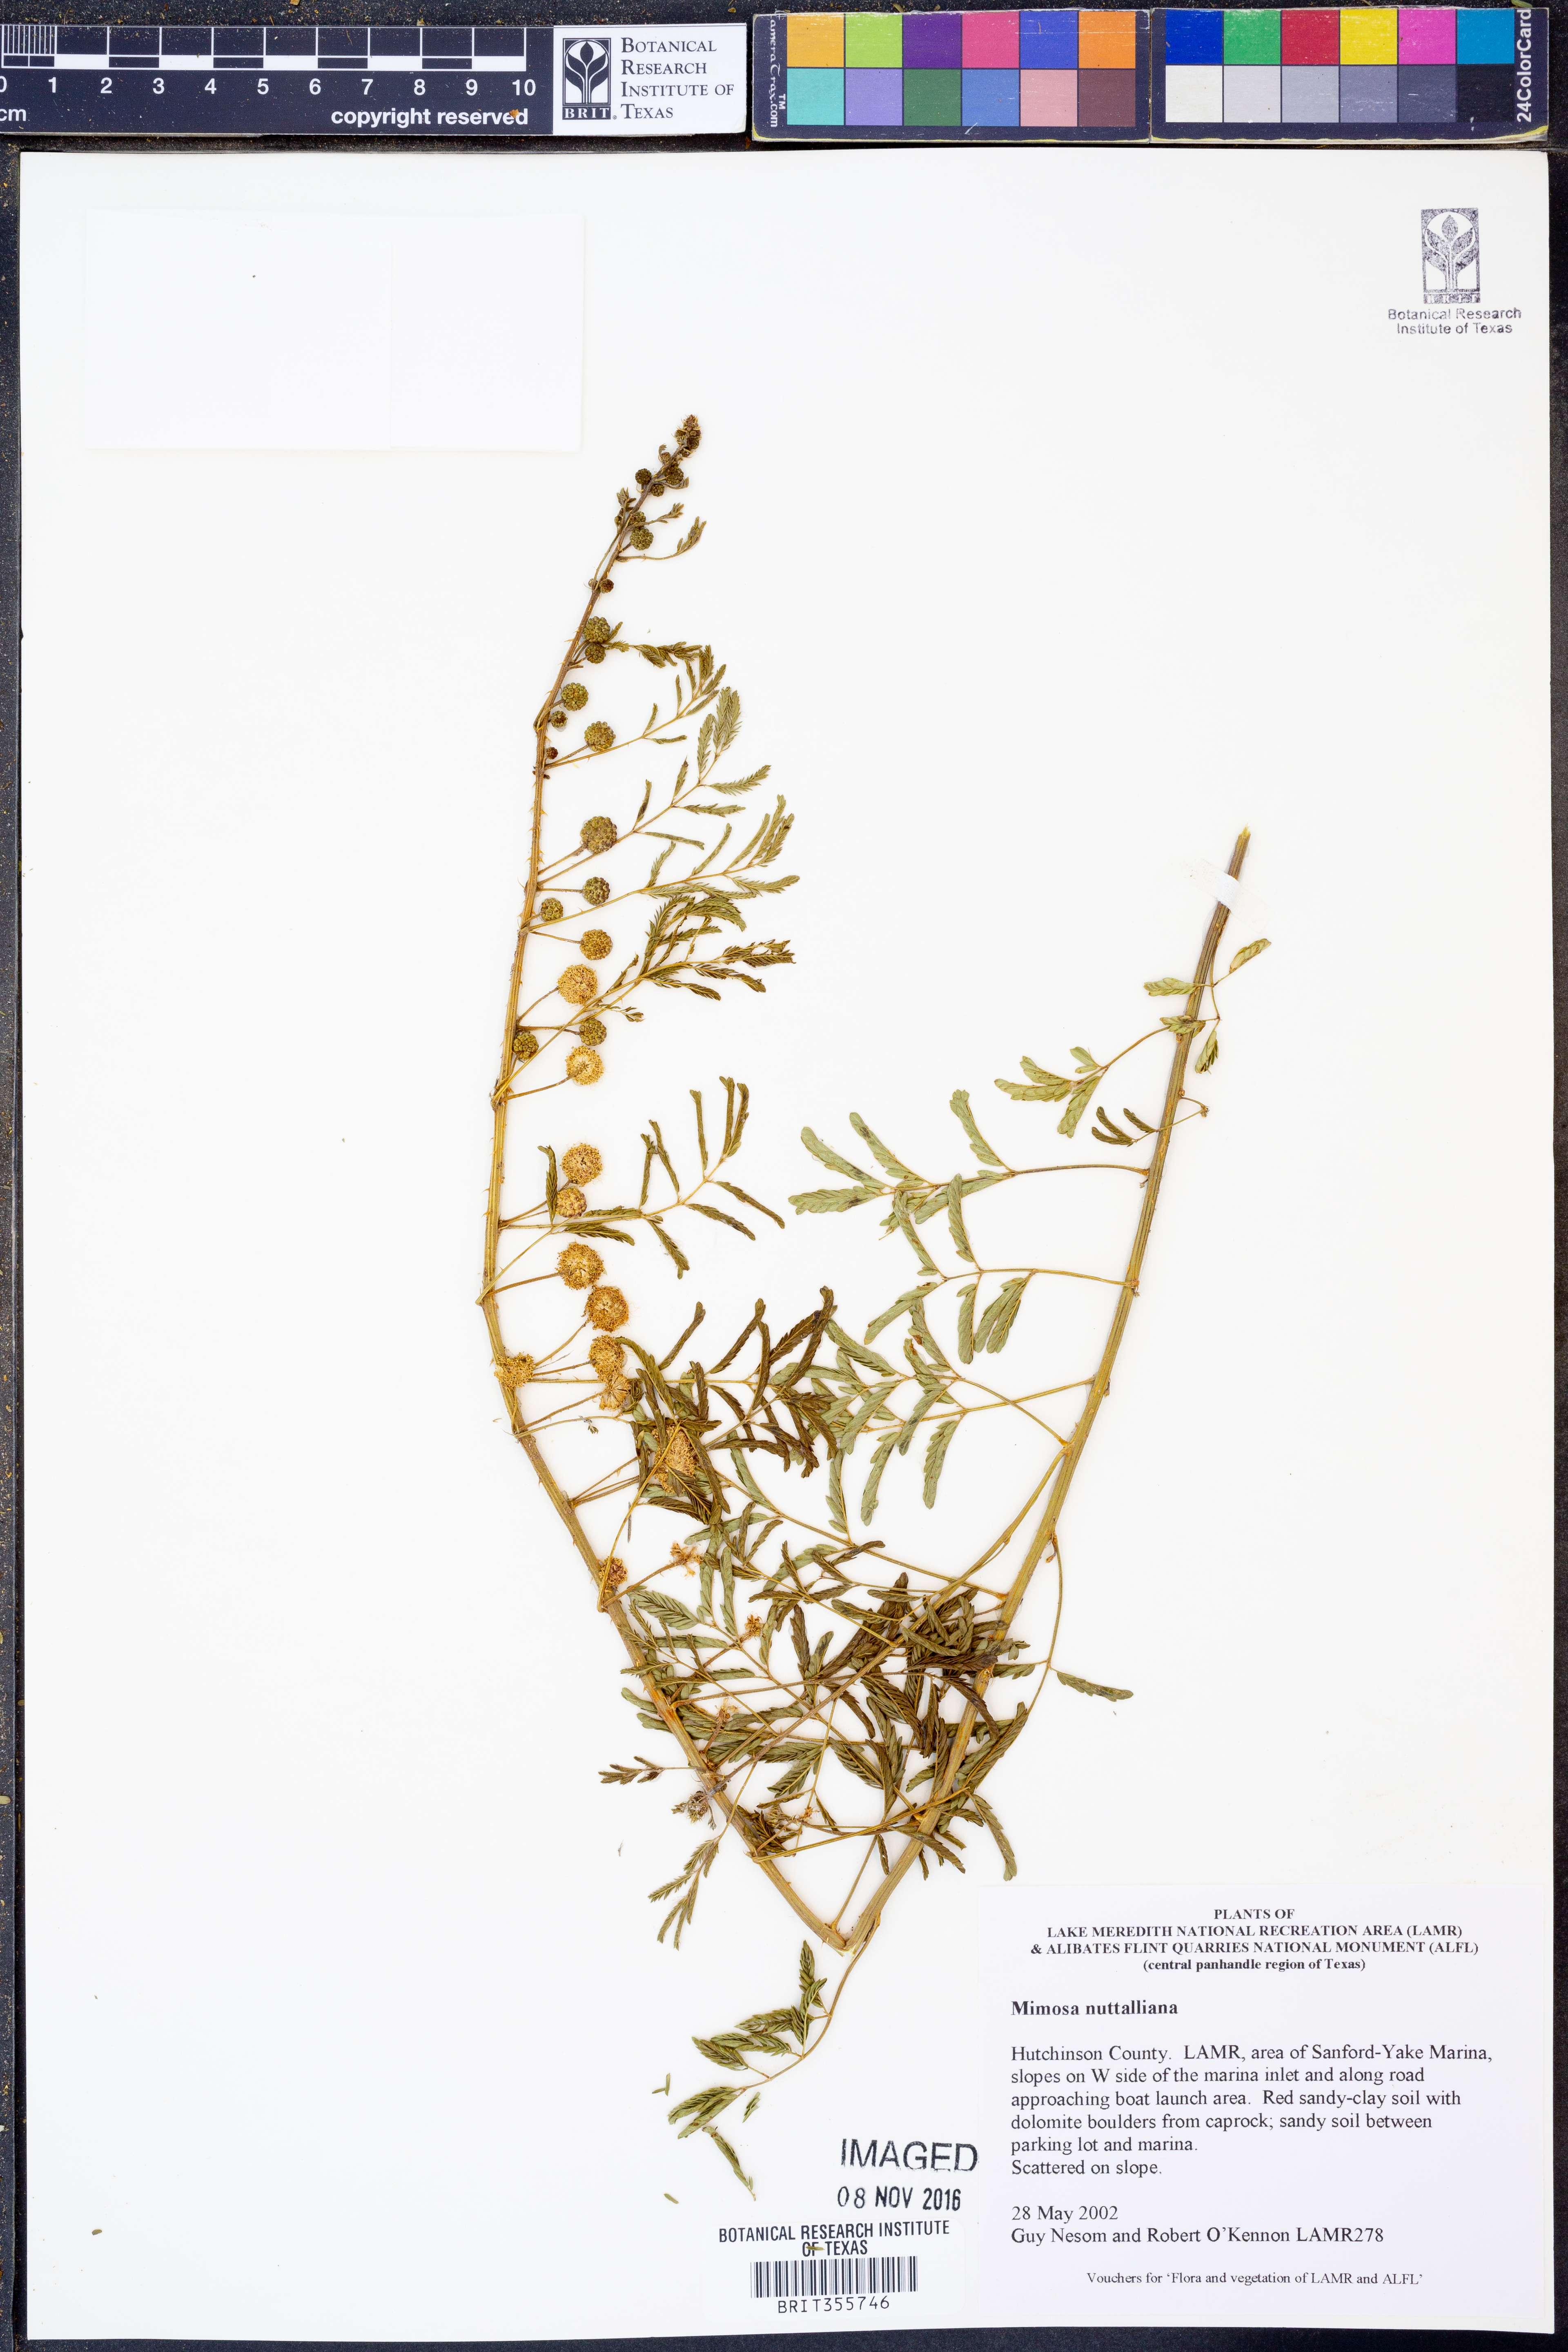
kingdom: Plantae
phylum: Tracheophyta
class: Magnoliopsida
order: Fabales
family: Fabaceae
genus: Mimosa
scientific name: Mimosa quadrivalvis
